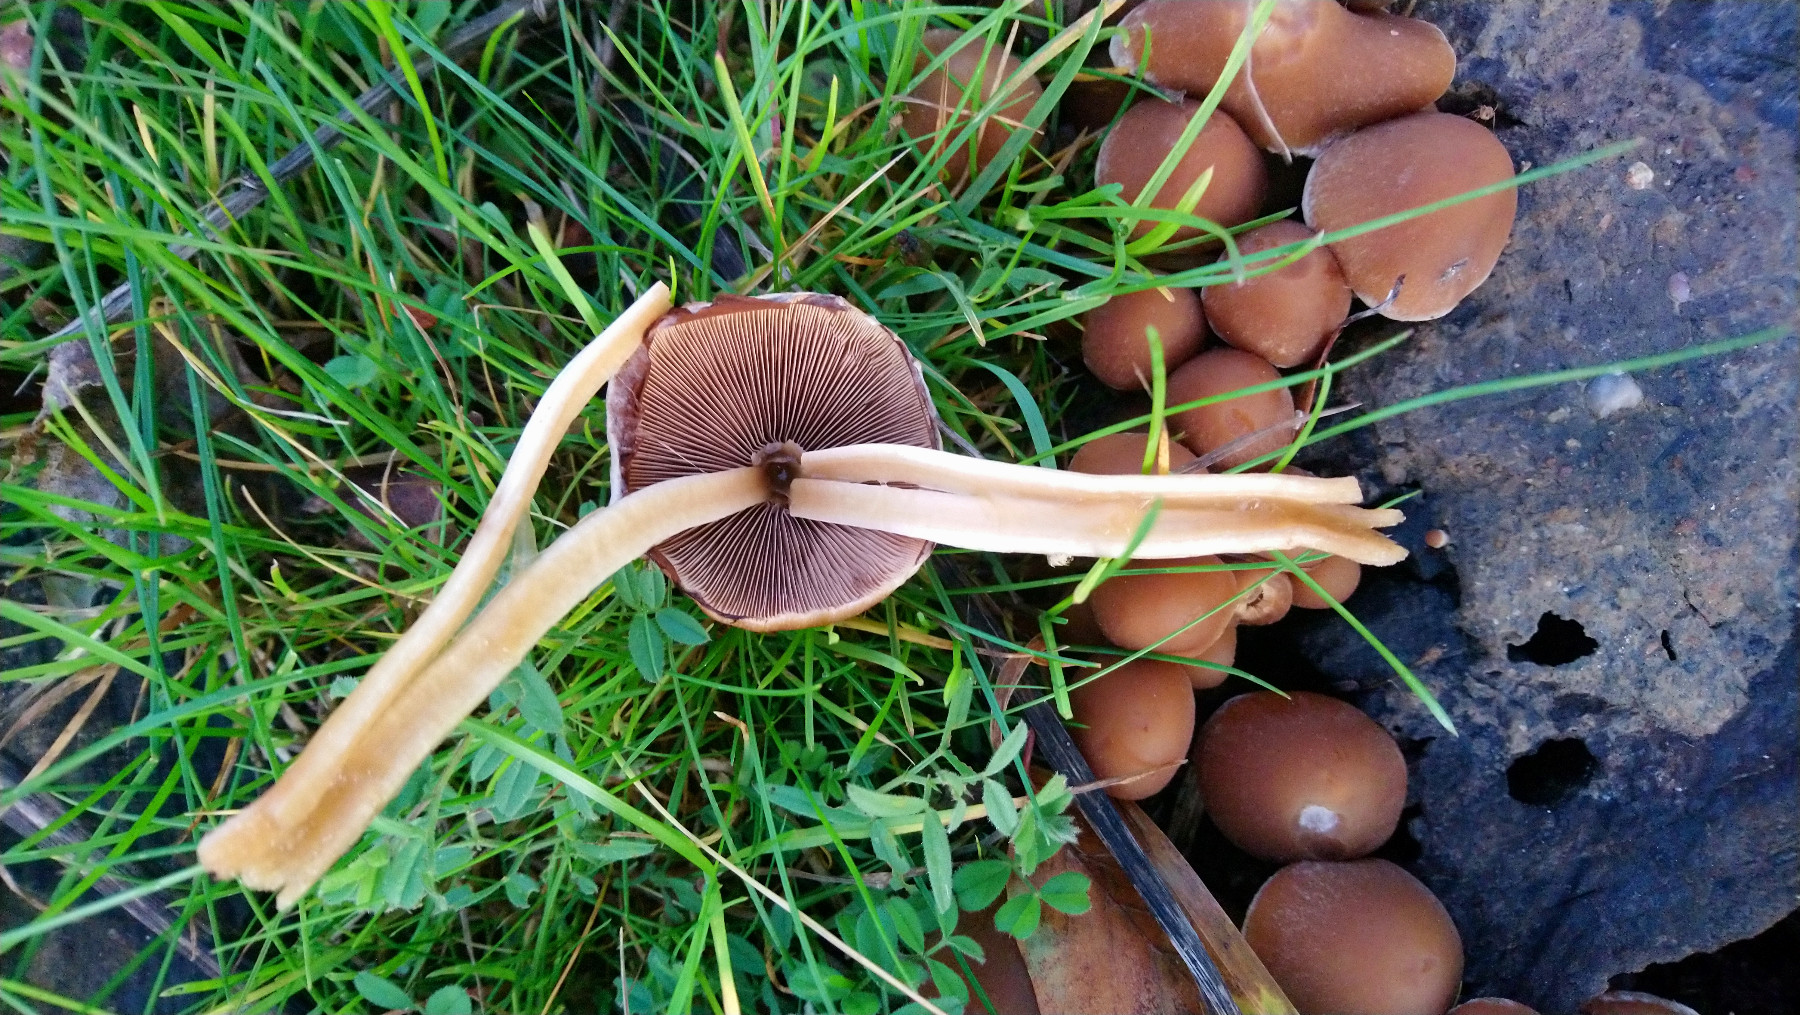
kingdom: Fungi
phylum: Basidiomycota
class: Agaricomycetes
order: Agaricales
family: Psathyrellaceae
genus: Psathyrella
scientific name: Psathyrella piluliformis
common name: lysstokket mørkhat
